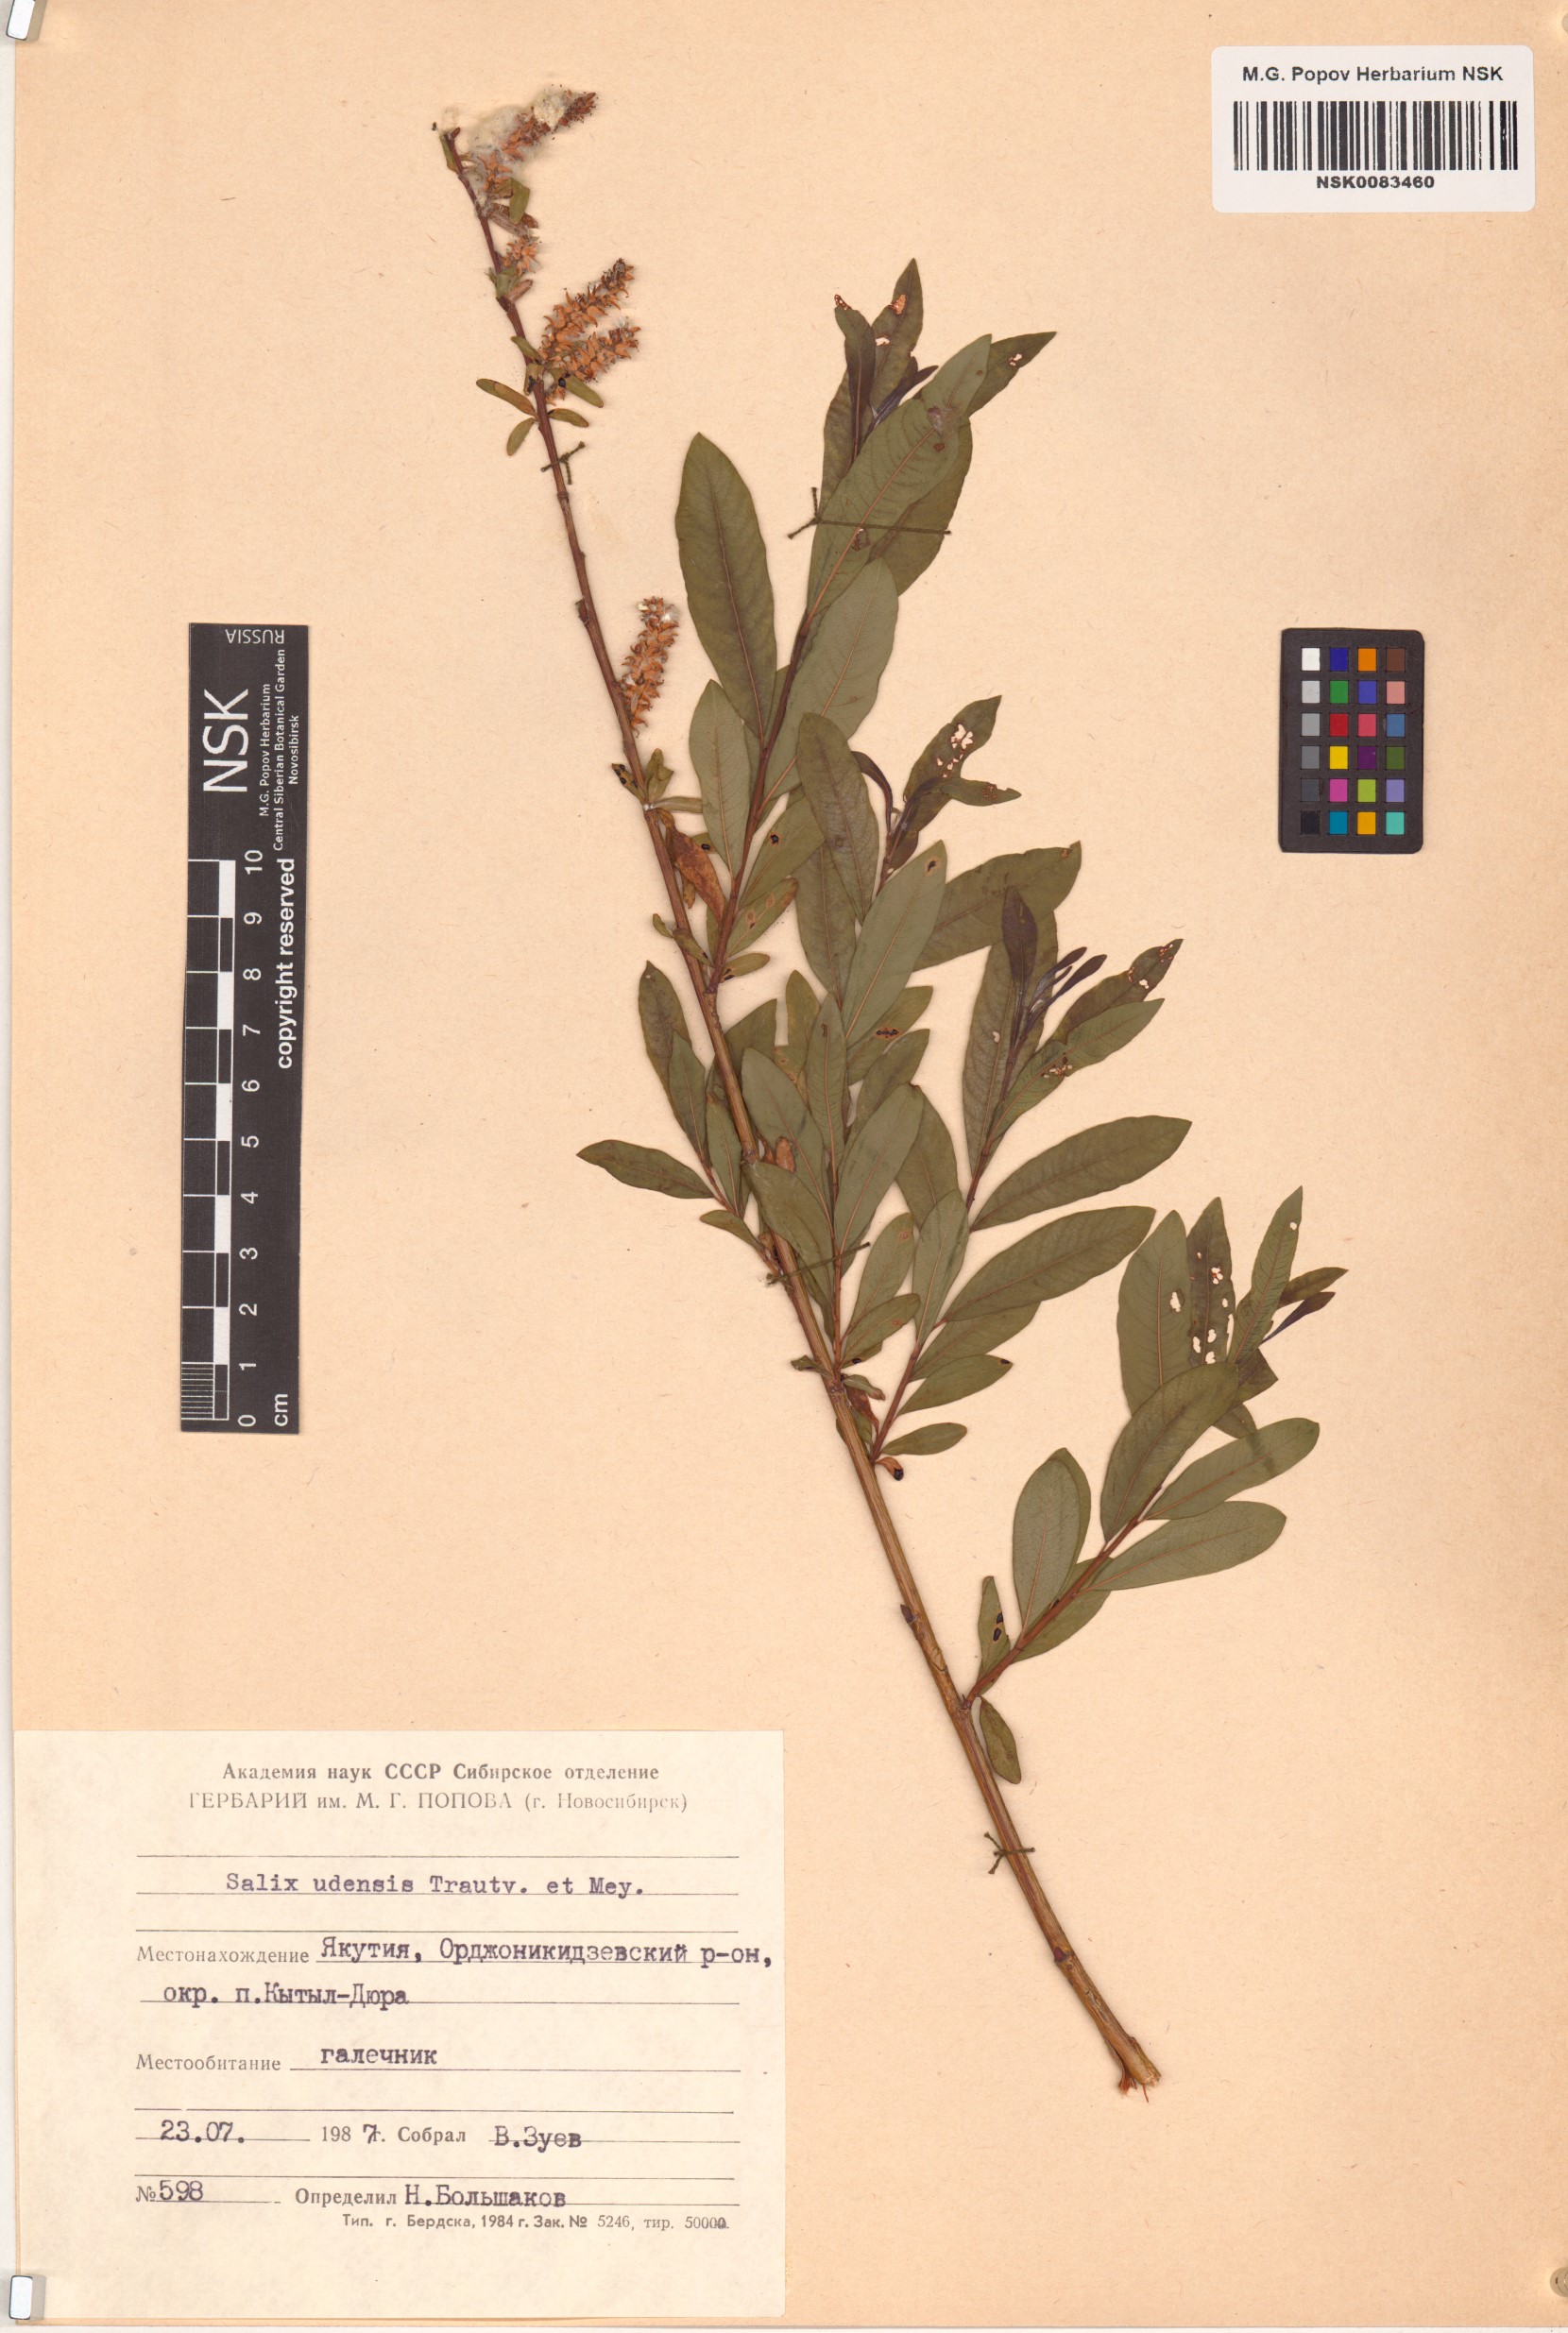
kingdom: Plantae
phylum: Tracheophyta
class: Magnoliopsida
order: Malpighiales
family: Salicaceae
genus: Salix
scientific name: Salix udensis
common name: Sachalin willow
